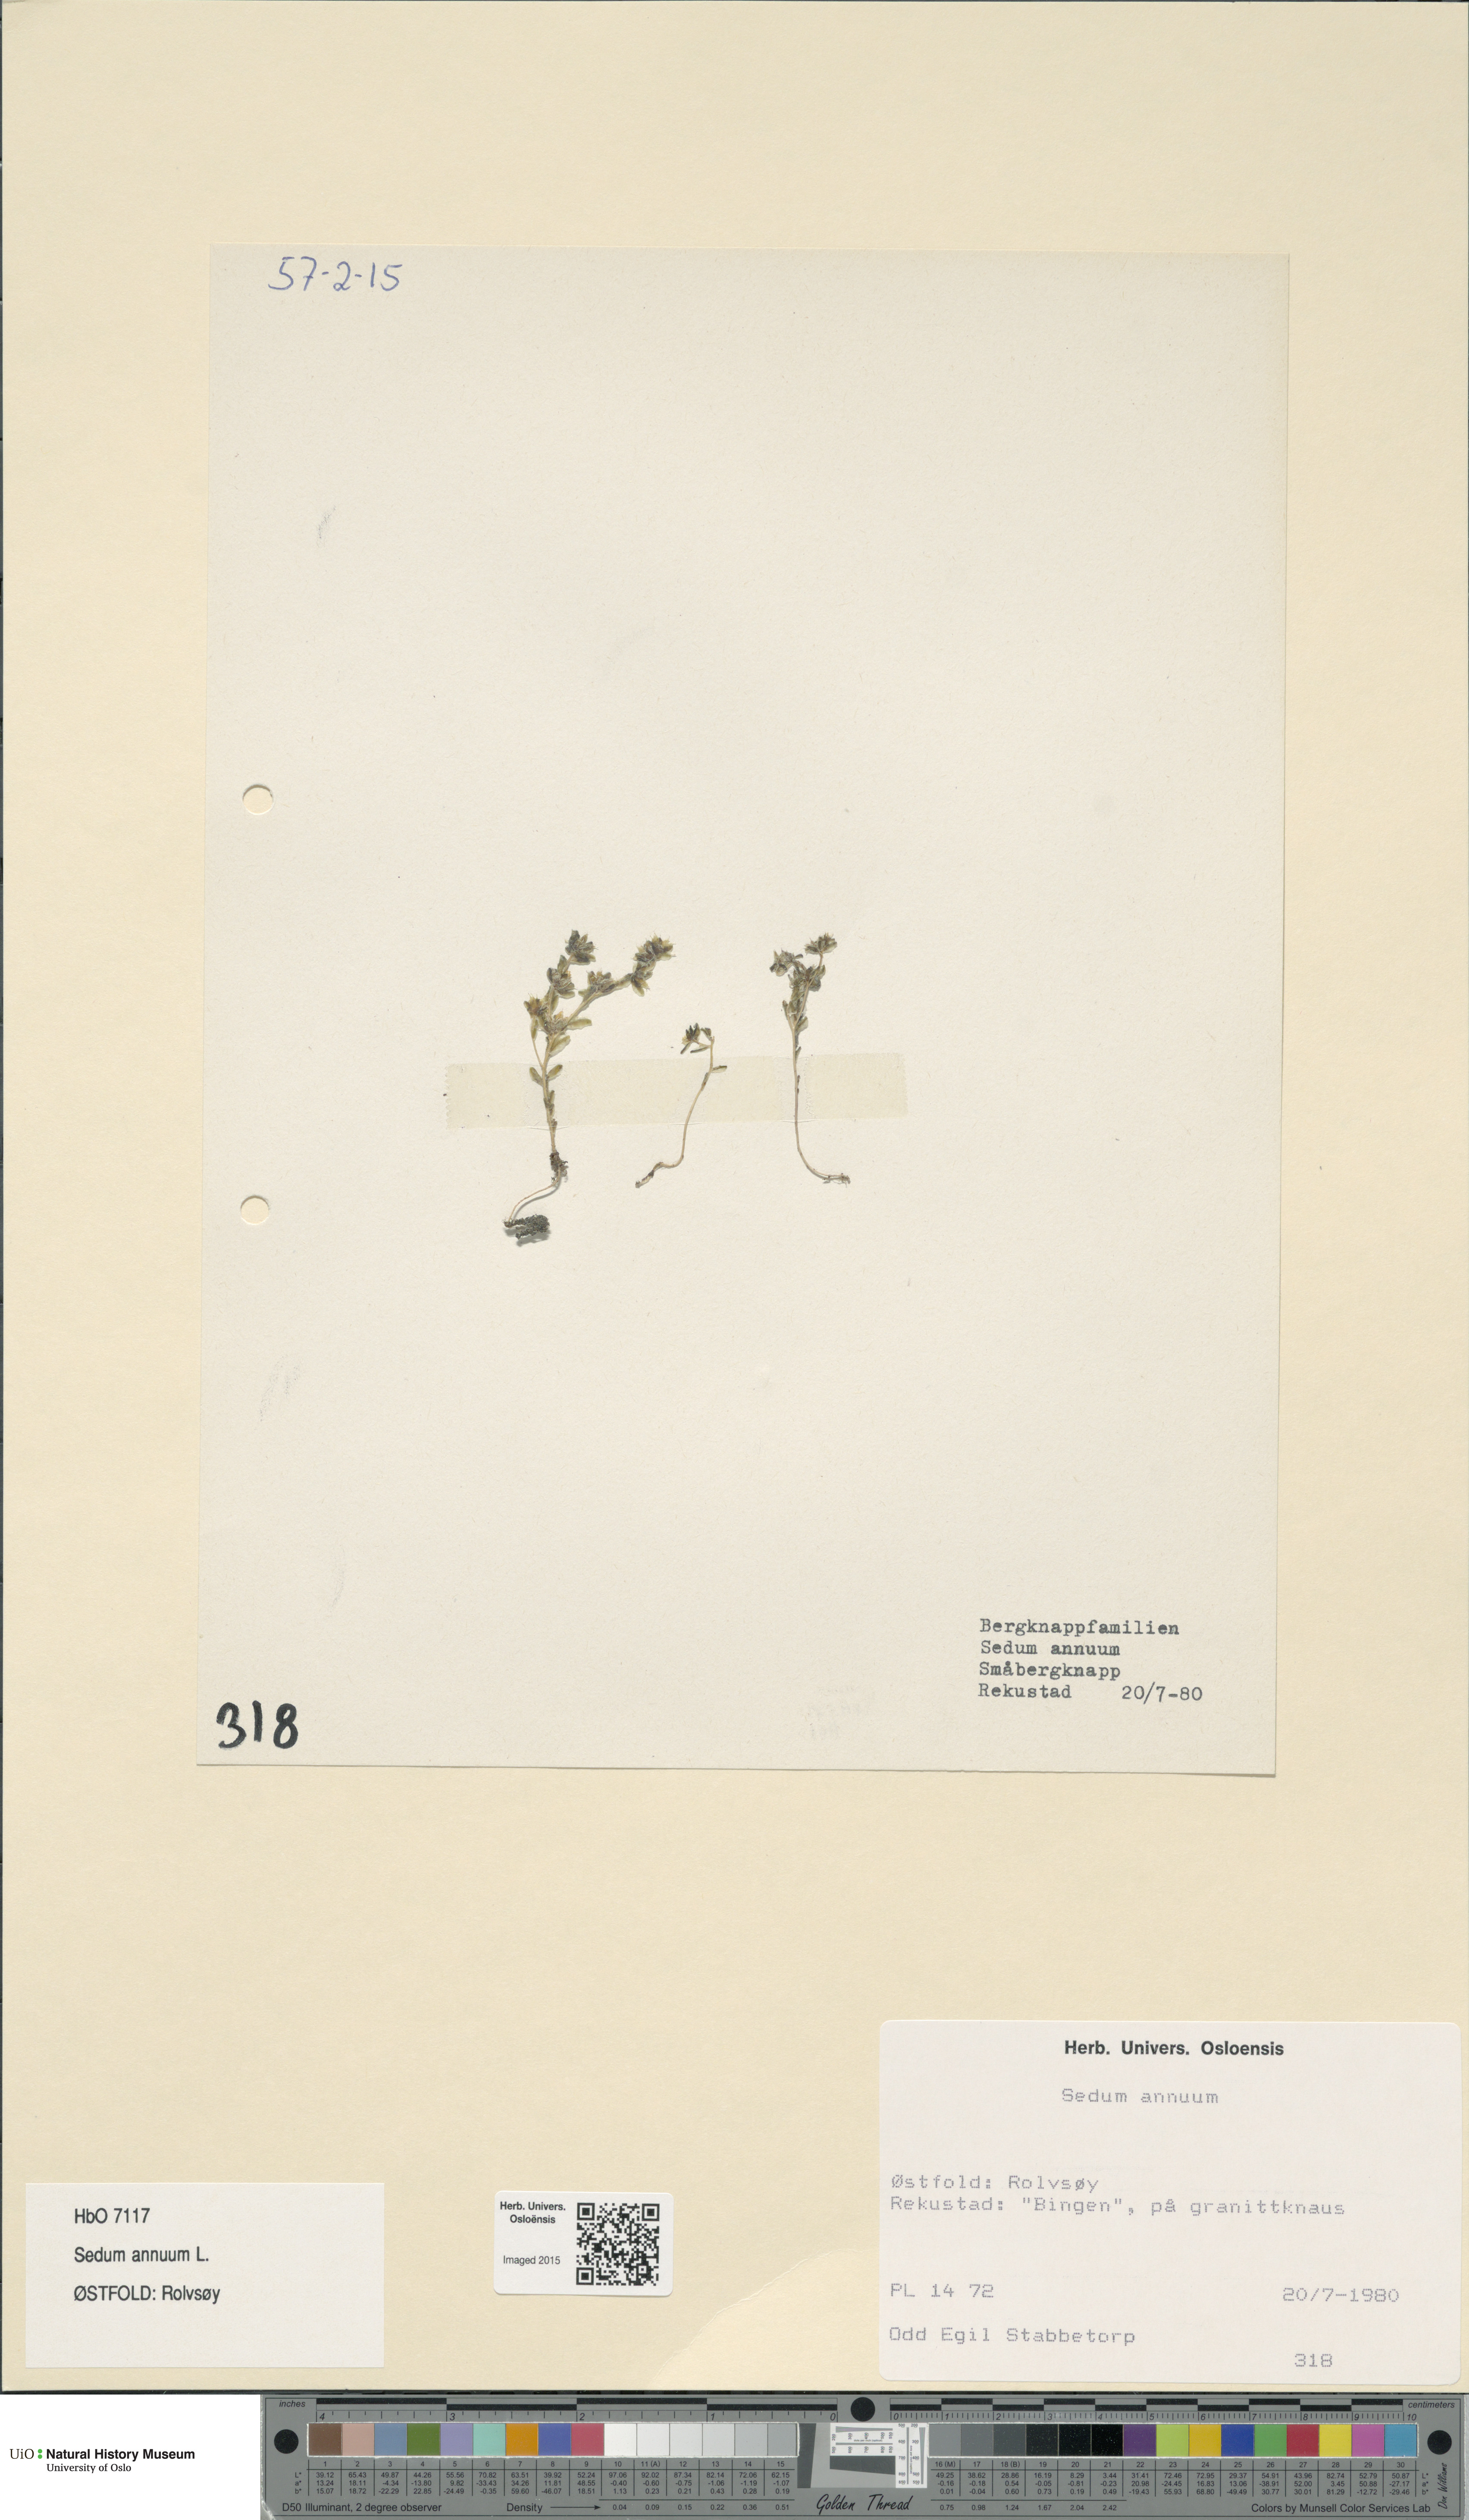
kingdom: Plantae
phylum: Tracheophyta
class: Magnoliopsida
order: Saxifragales
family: Crassulaceae
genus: Sedum
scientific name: Sedum annuum
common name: Annual stonecrop
